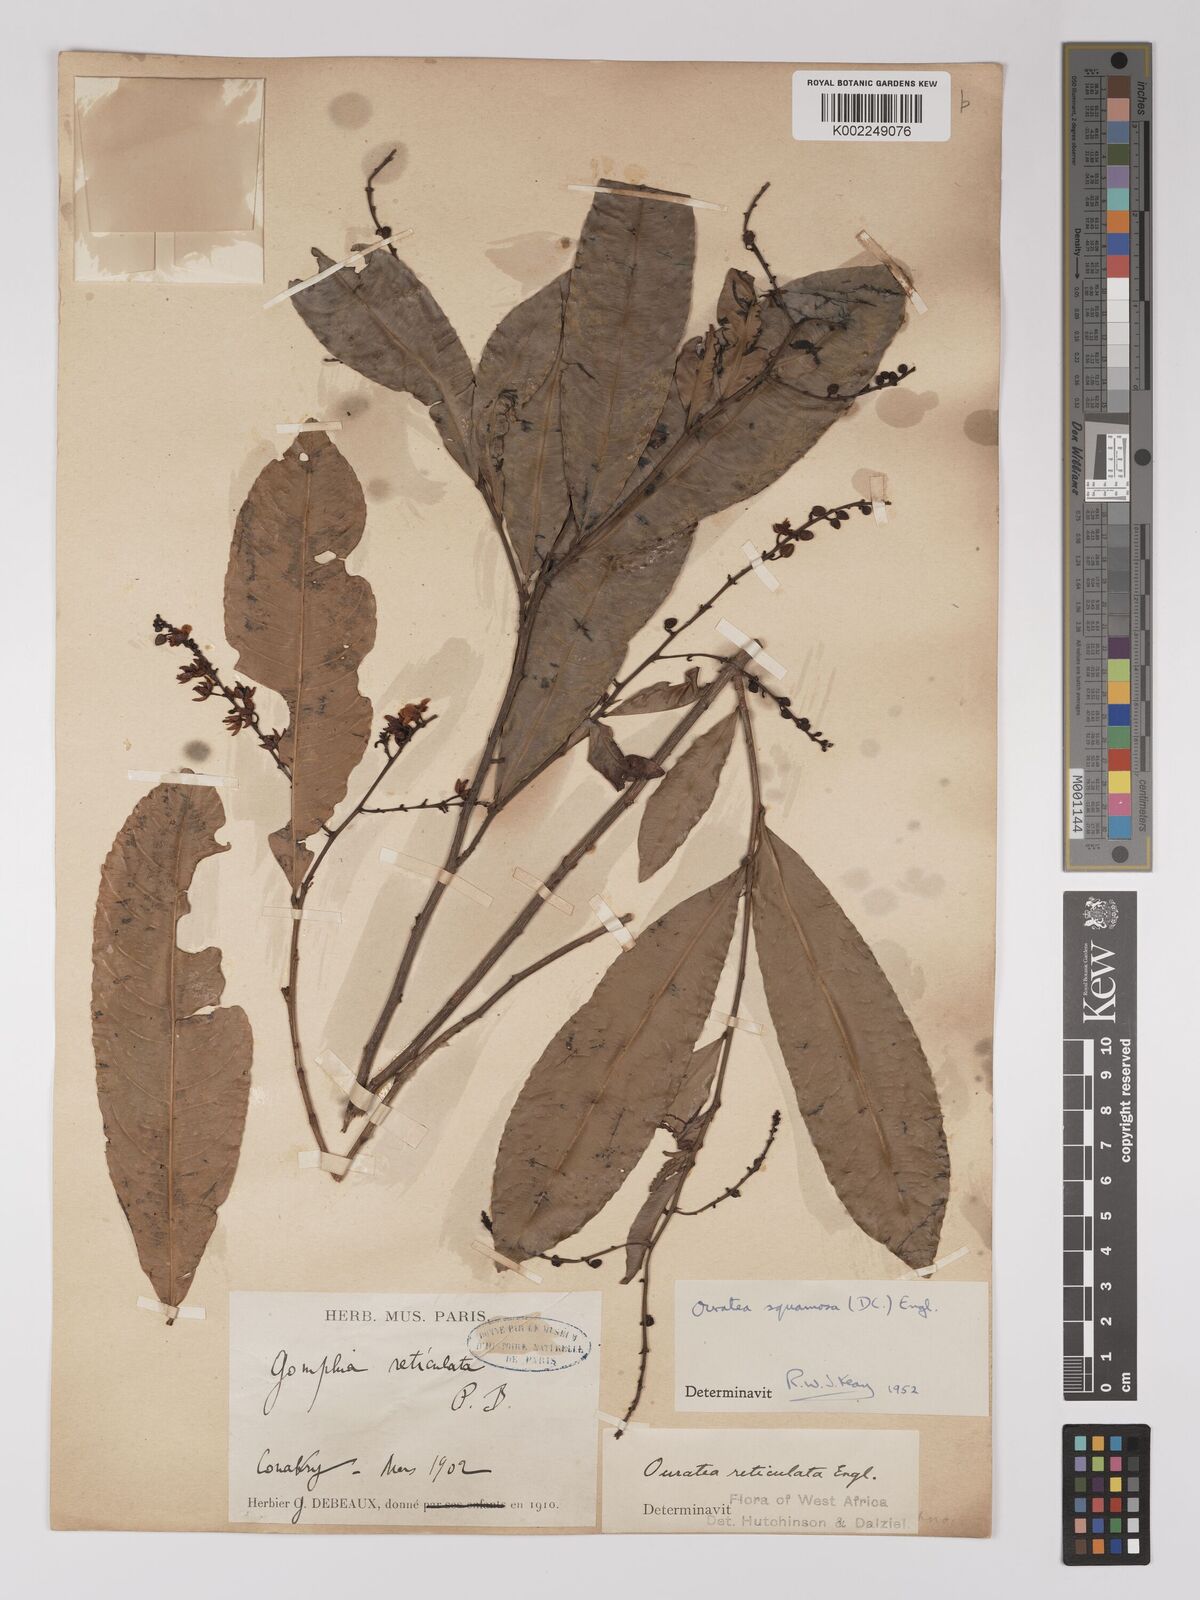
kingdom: Plantae
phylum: Tracheophyta
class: Magnoliopsida
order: Malpighiales
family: Ochnaceae
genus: Campylospermum
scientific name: Campylospermum squamosum
